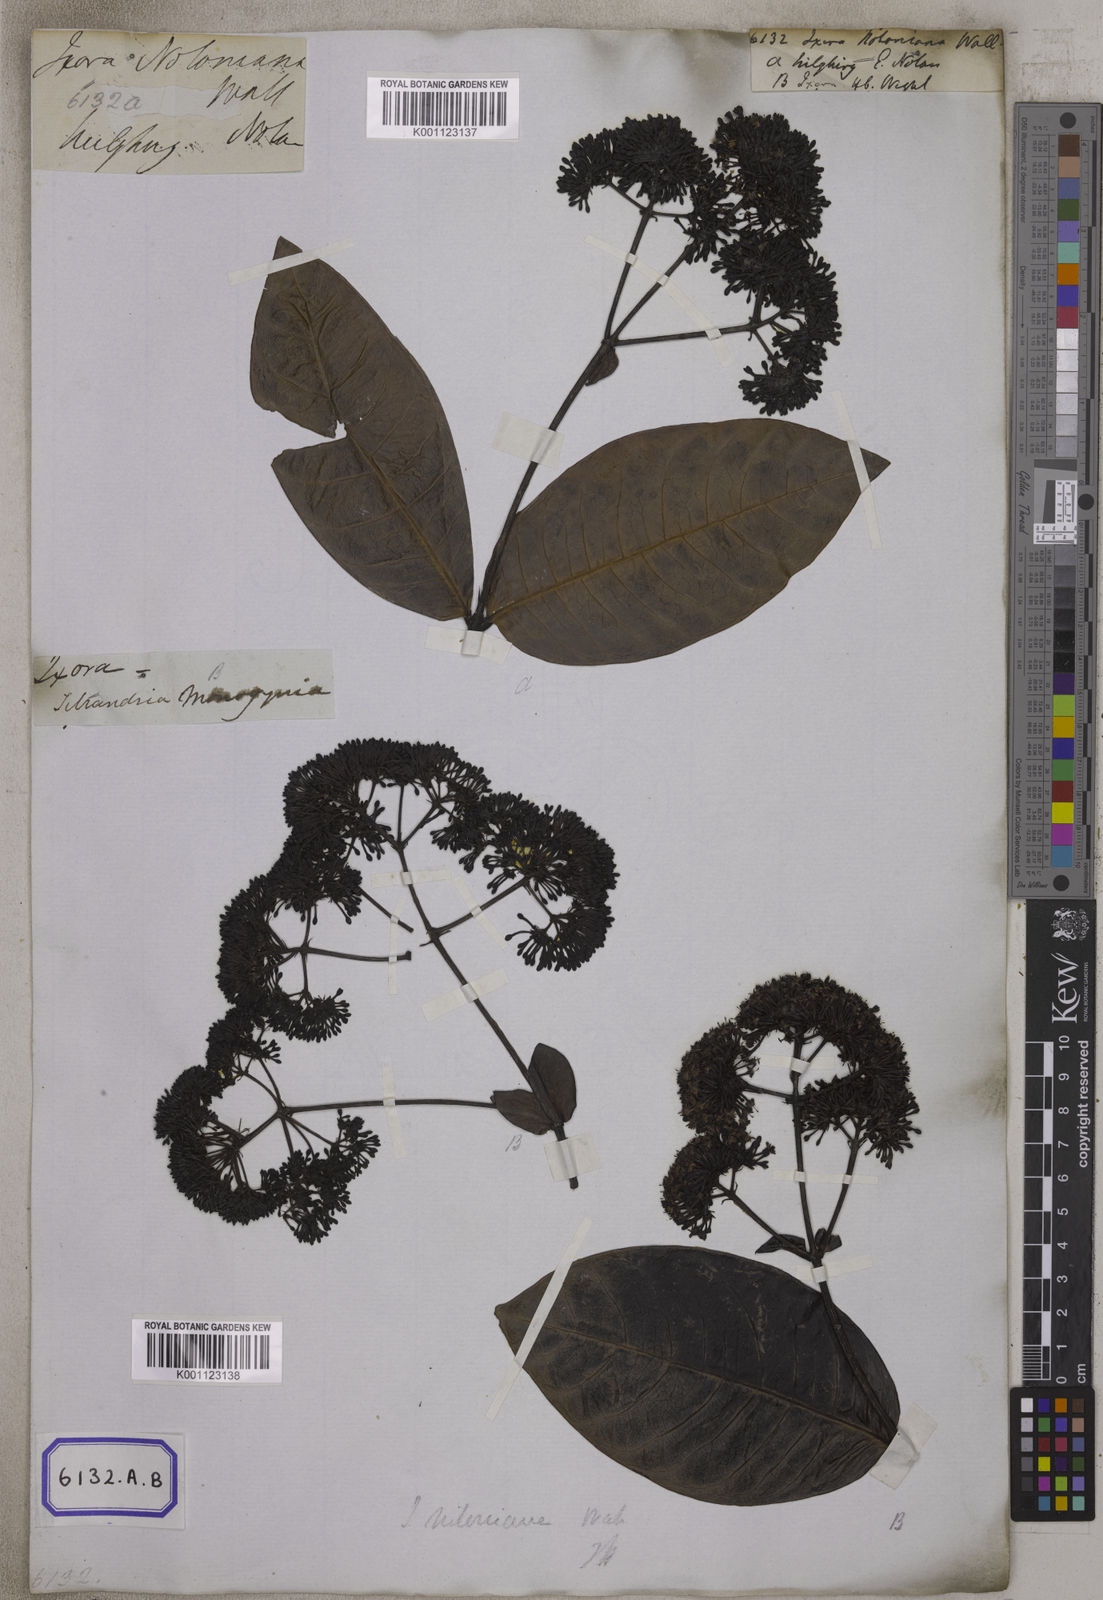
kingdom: Plantae
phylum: Tracheophyta
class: Magnoliopsida
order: Gentianales
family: Rubiaceae
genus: Ixora
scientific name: Ixora
